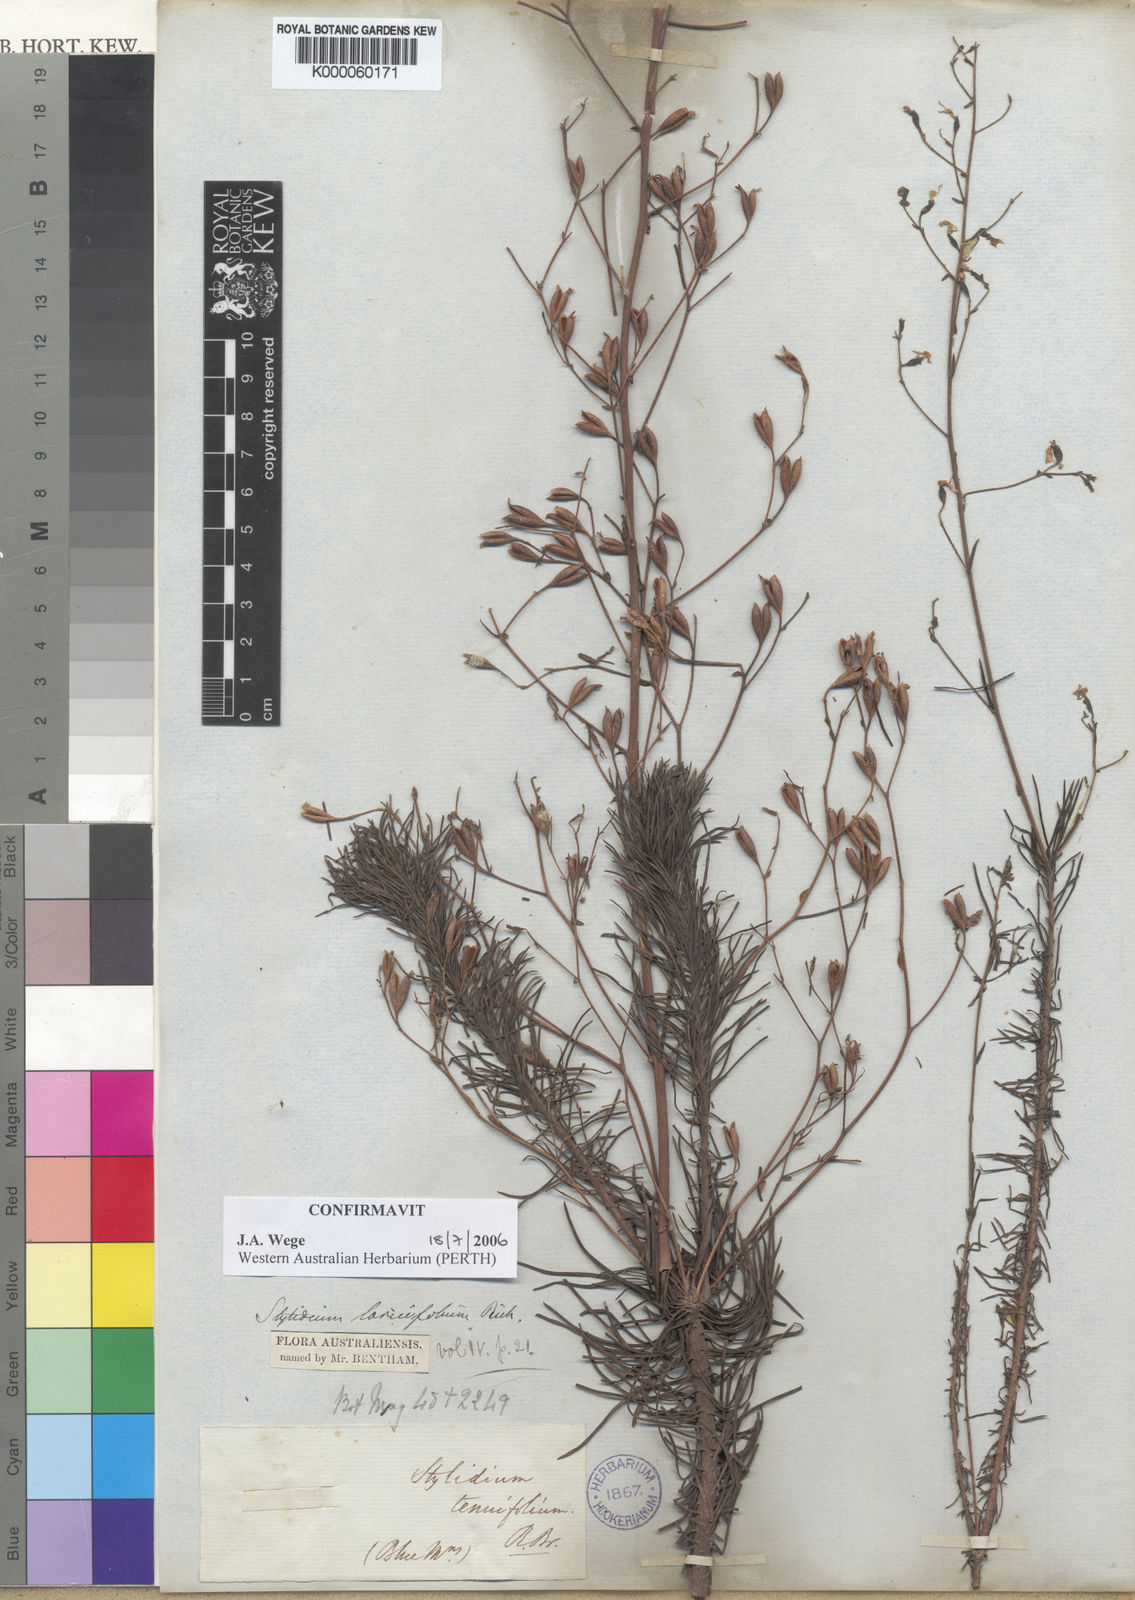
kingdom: Plantae
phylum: Tracheophyta
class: Magnoliopsida
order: Asterales
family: Stylidiaceae
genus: Stylidium
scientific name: Stylidium laricifolium
